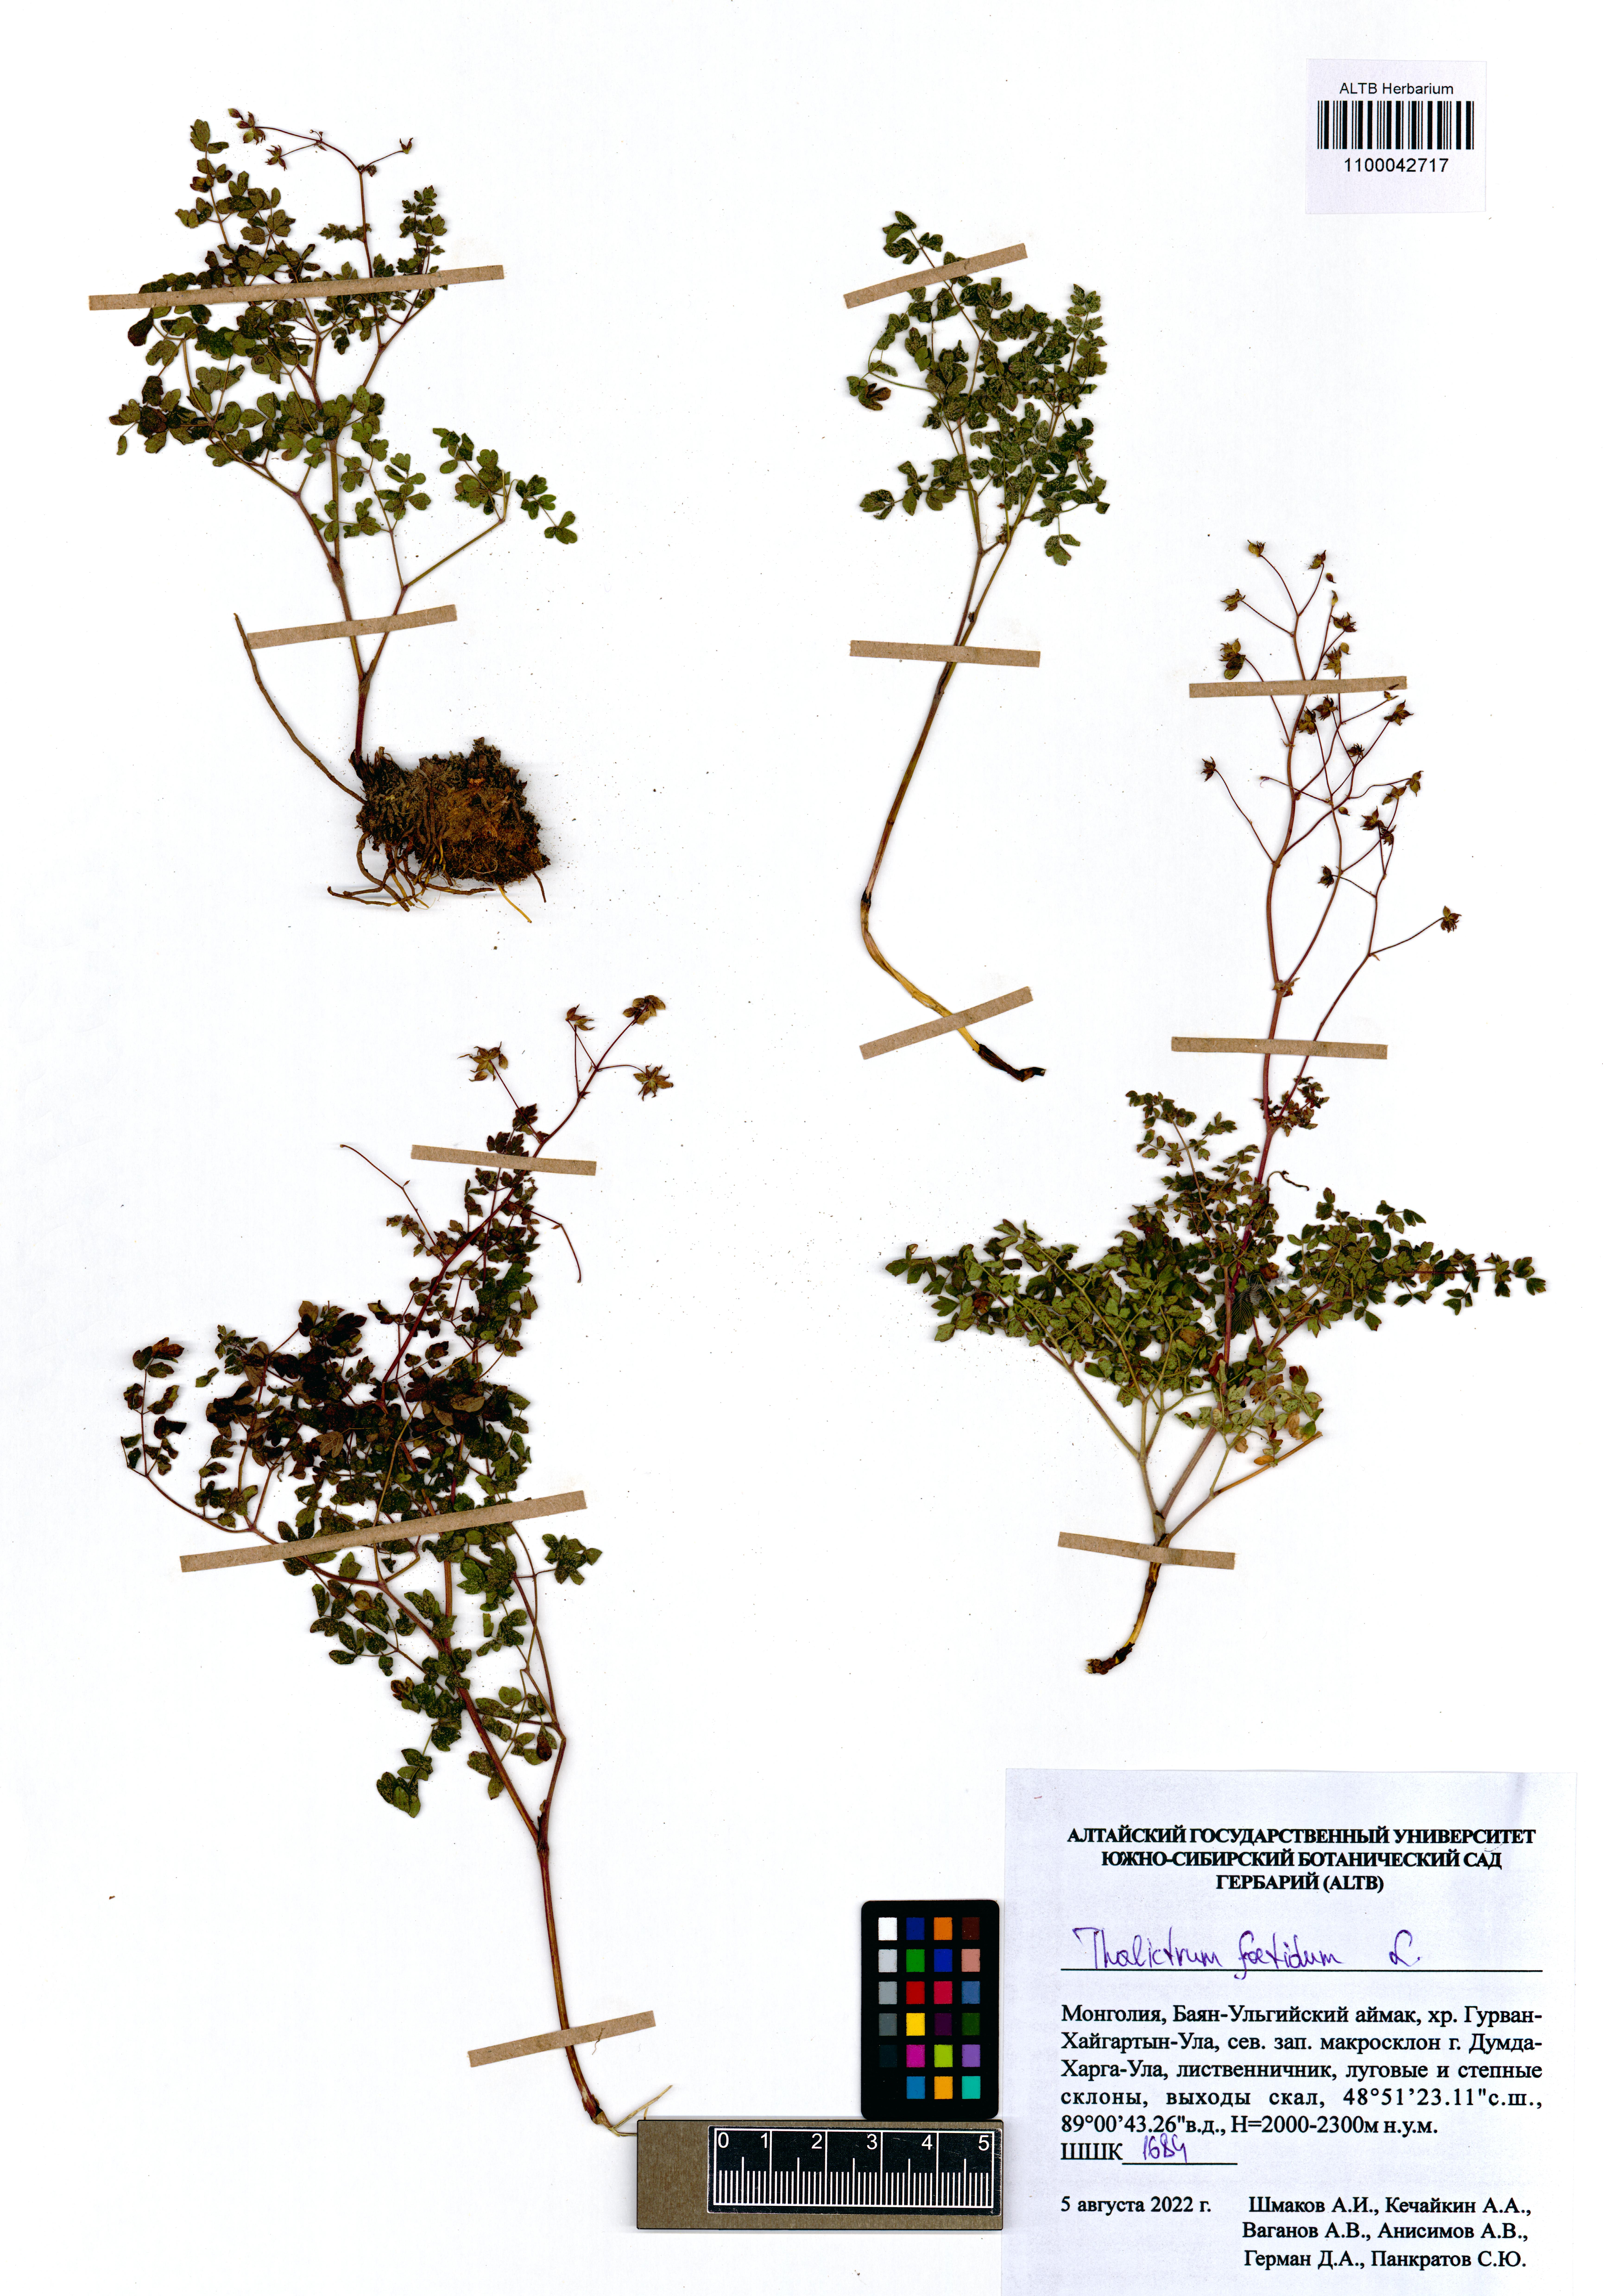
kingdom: Plantae
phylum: Tracheophyta
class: Magnoliopsida
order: Ranunculales
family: Ranunculaceae
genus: Thalictrum
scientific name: Thalictrum foetidum
